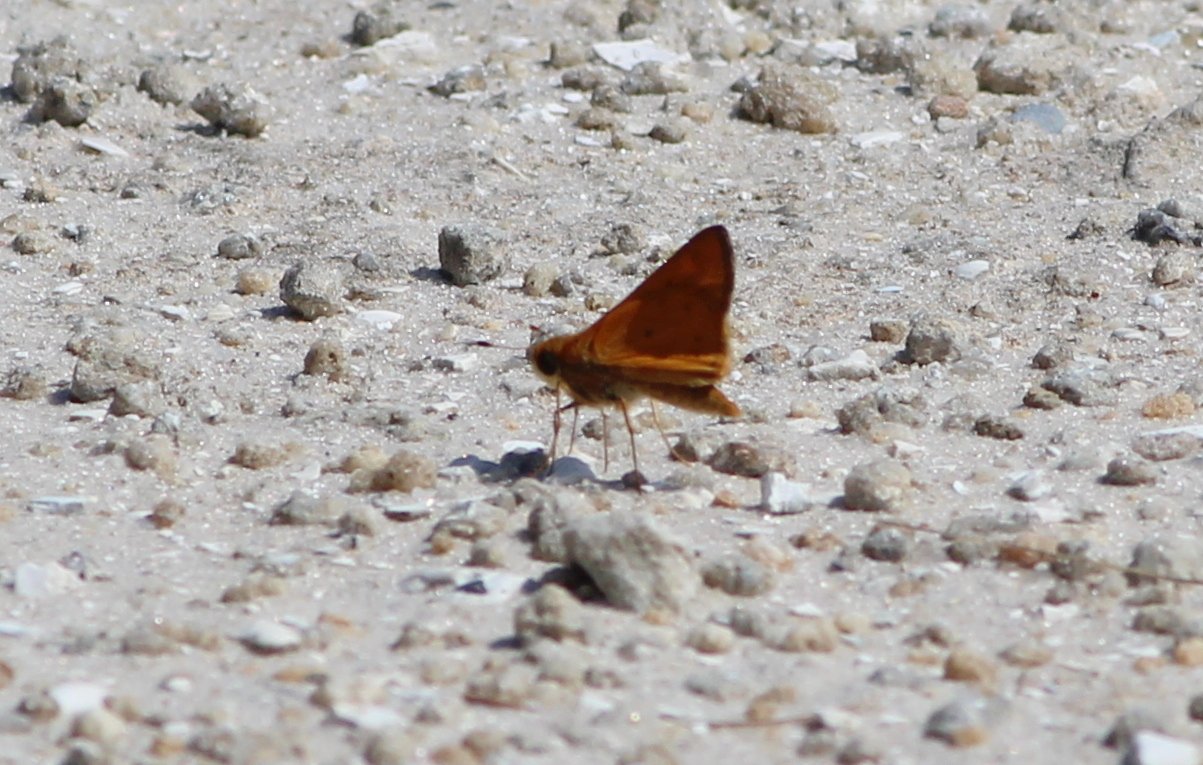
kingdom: Animalia
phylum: Arthropoda
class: Insecta
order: Lepidoptera
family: Hesperiidae
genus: Hylephila
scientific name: Hylephila phyleus
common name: Fiery Skipper
